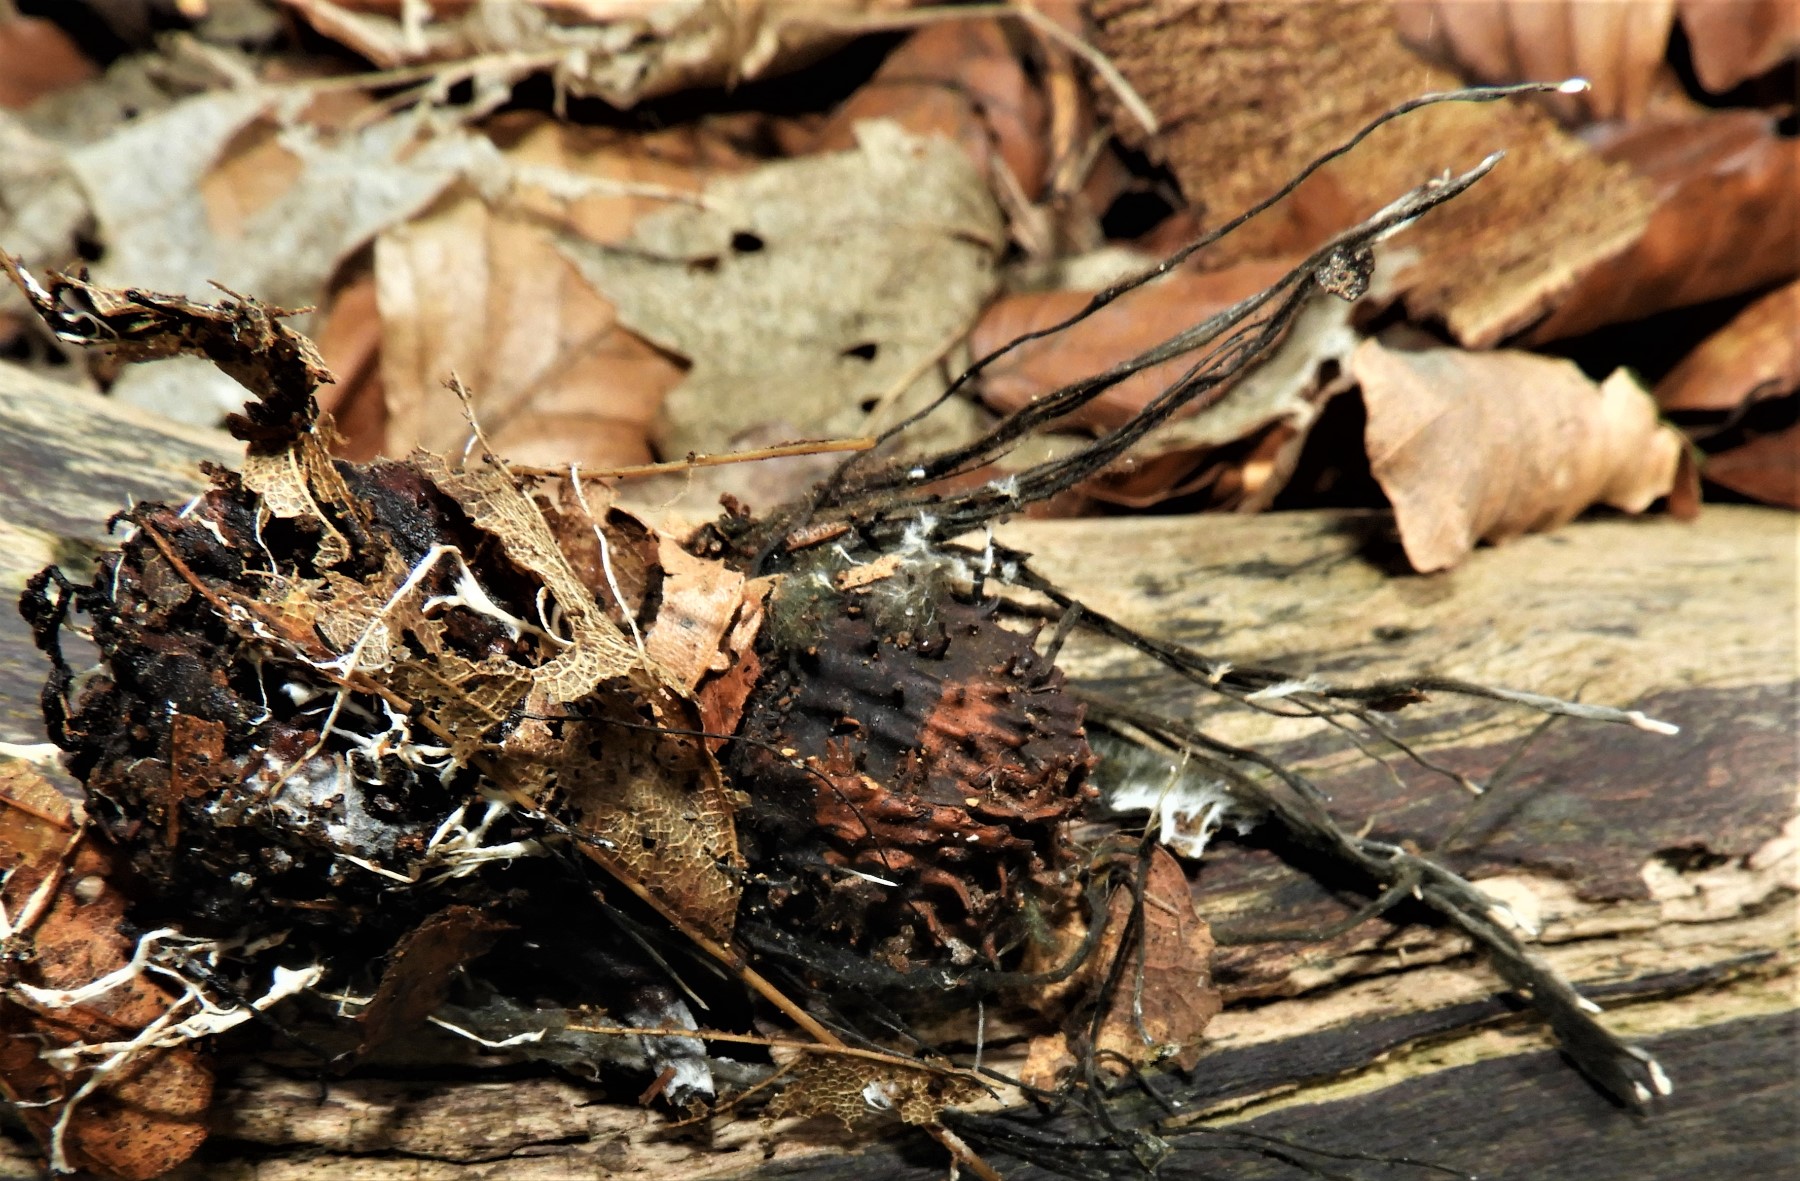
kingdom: Fungi
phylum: Ascomycota
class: Sordariomycetes
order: Xylariales
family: Xylariaceae
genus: Xylaria
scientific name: Xylaria carpophila
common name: bogskål-stødsvamp
